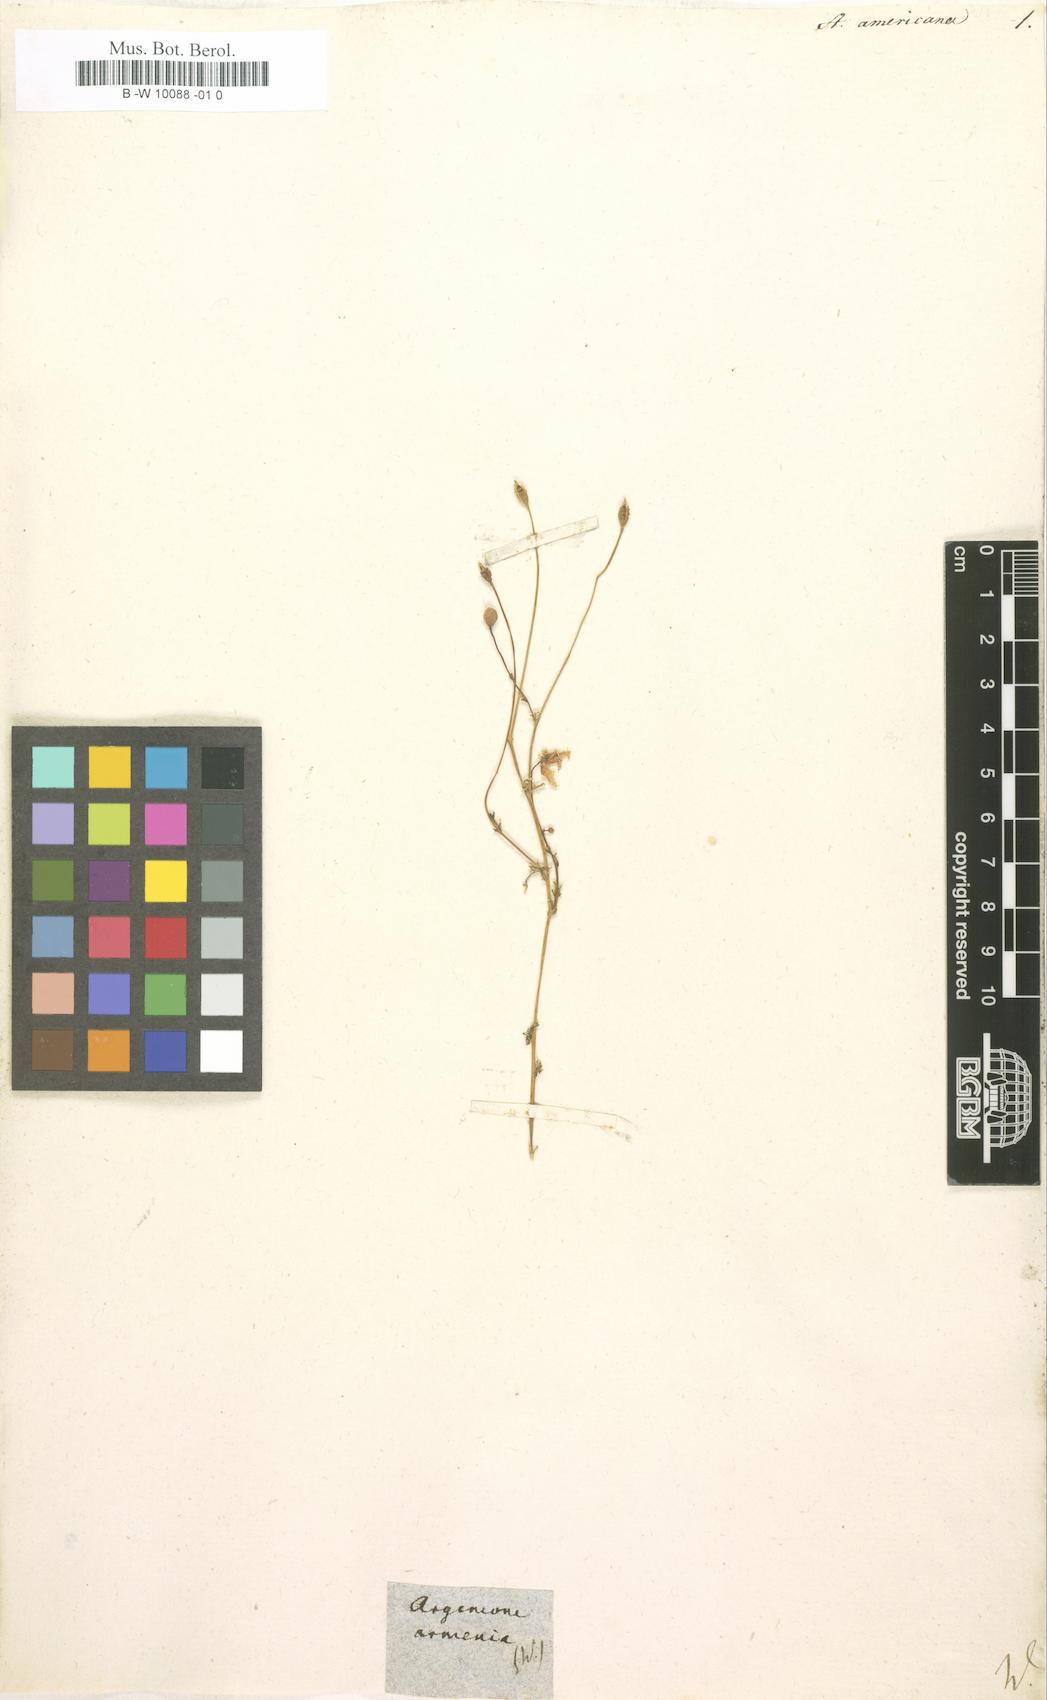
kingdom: Plantae
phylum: Tracheophyta
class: Magnoliopsida
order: Ranunculales
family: Papaveraceae
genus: Papaver
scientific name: Papaver armeniacum
